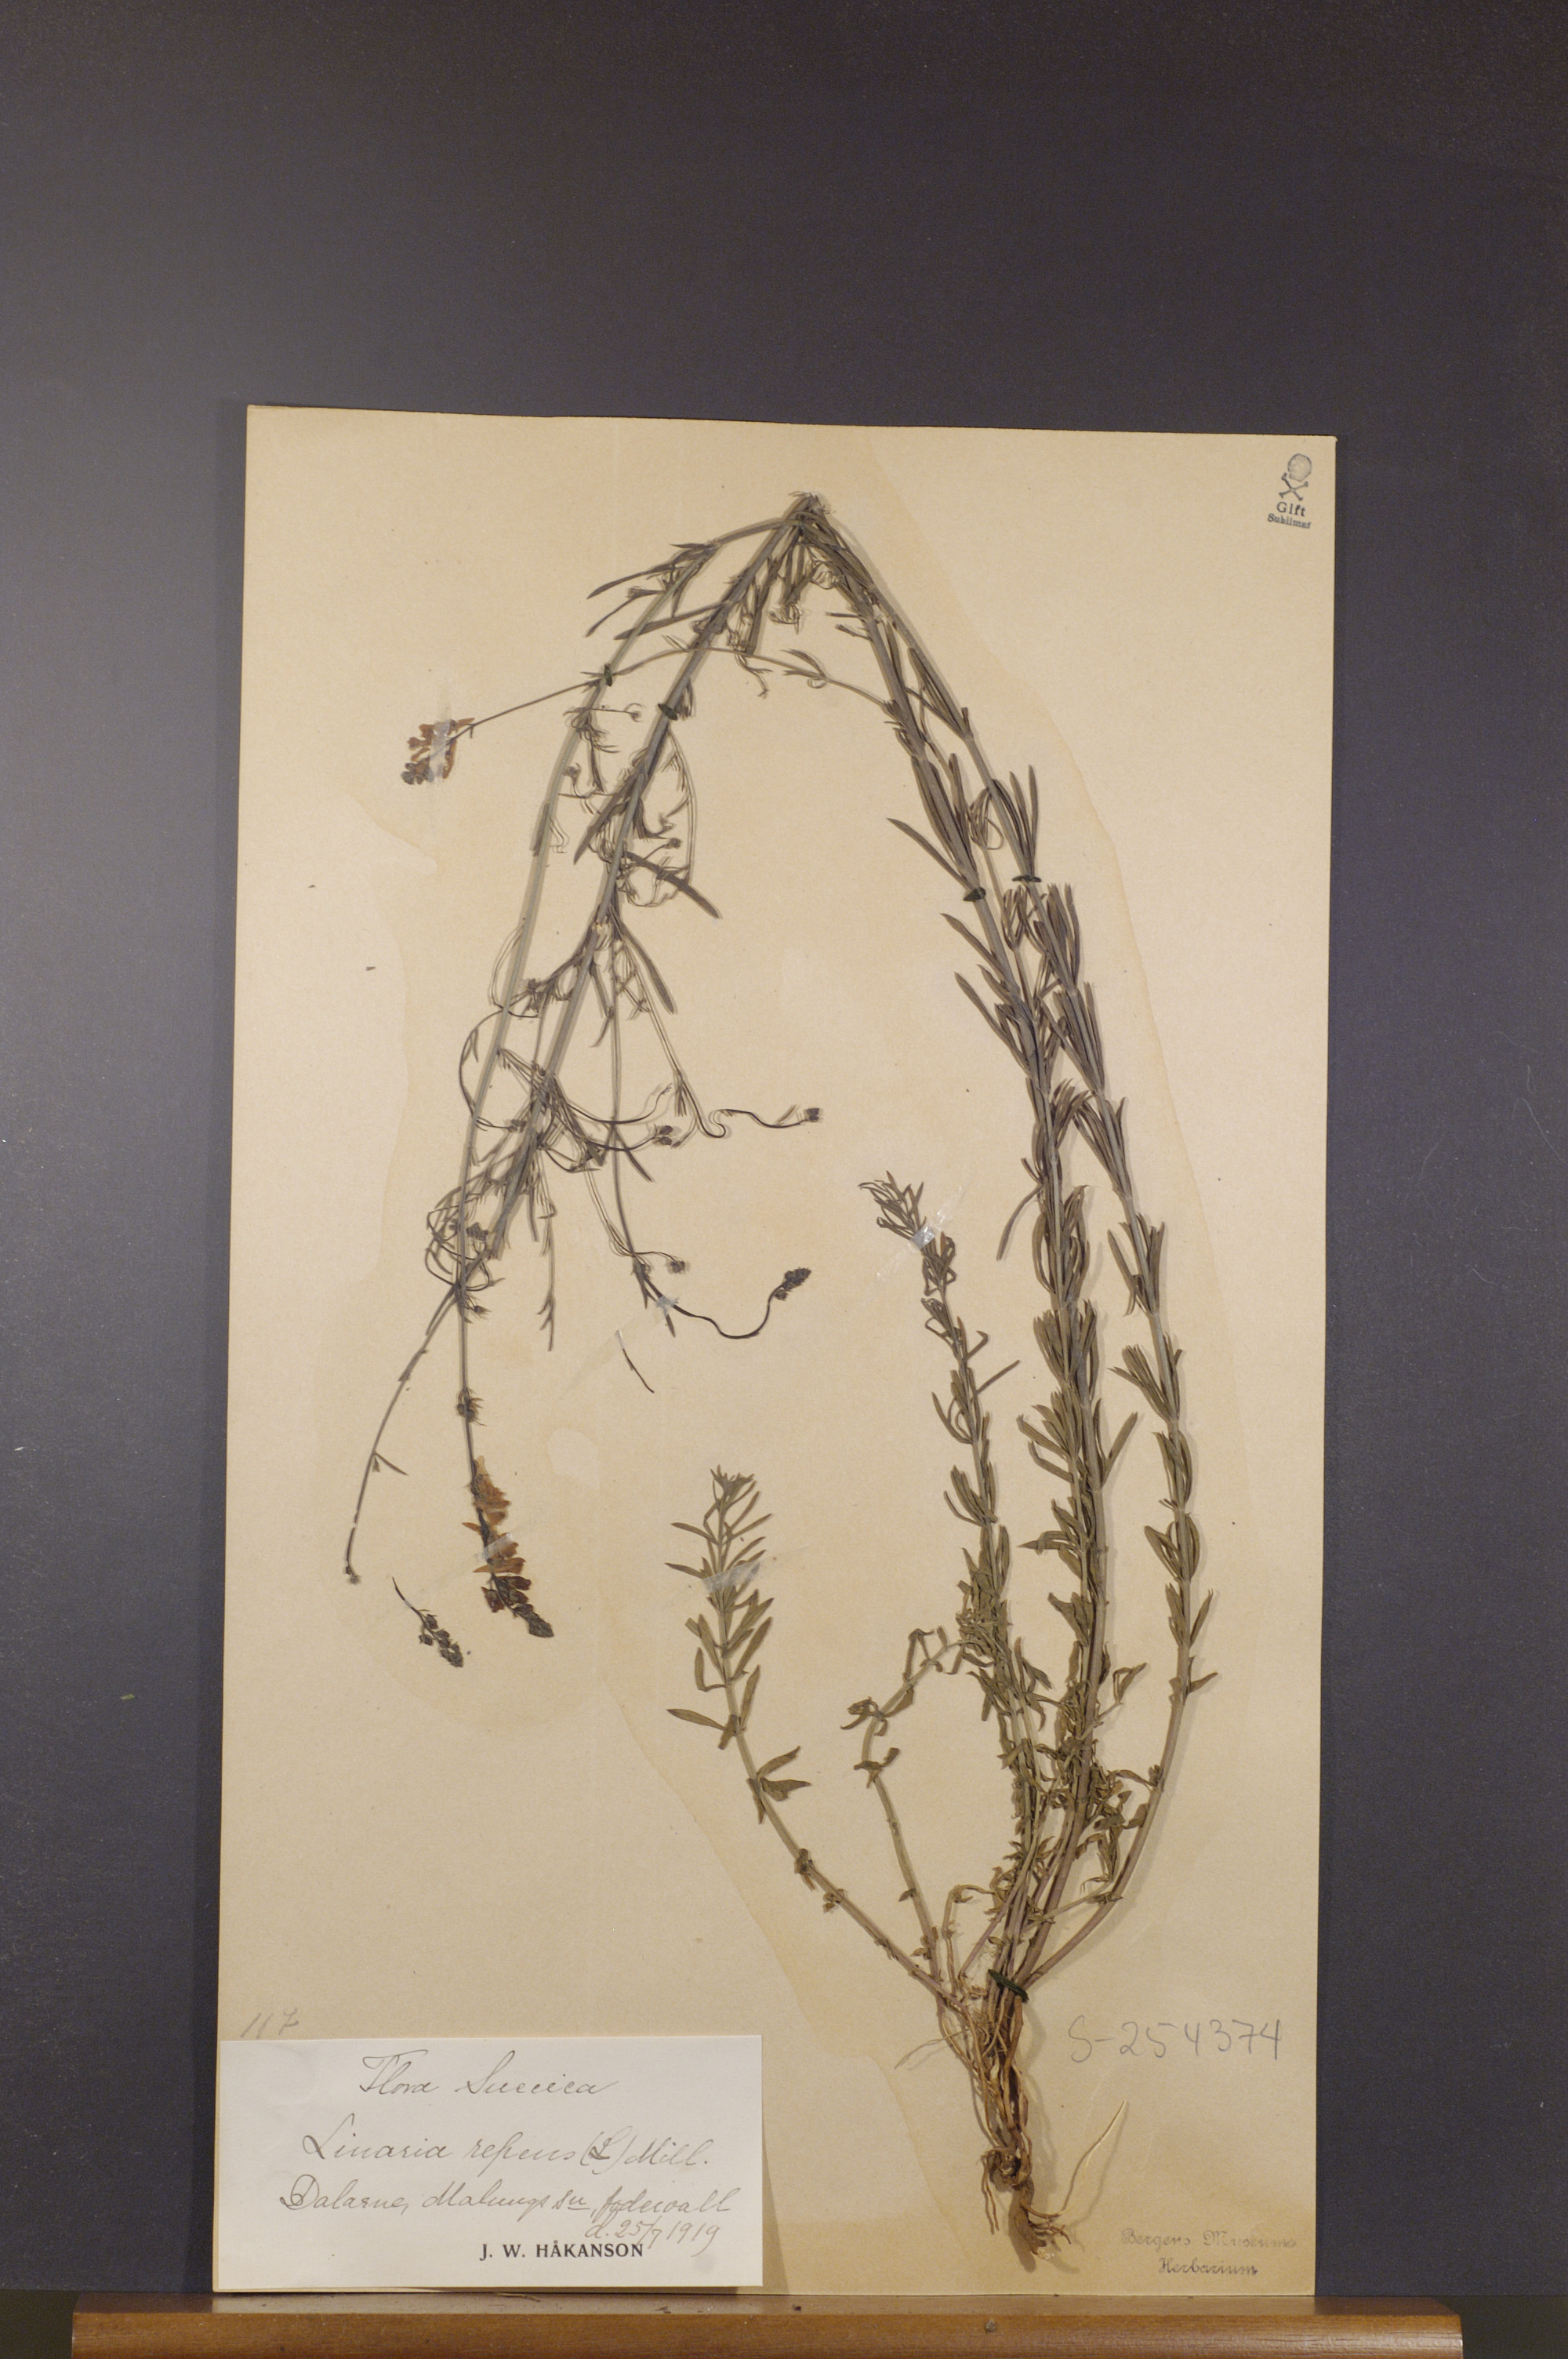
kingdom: Plantae
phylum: Tracheophyta
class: Magnoliopsida
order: Lamiales
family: Plantaginaceae
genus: Linaria
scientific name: Linaria repens
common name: Pale toadflax
